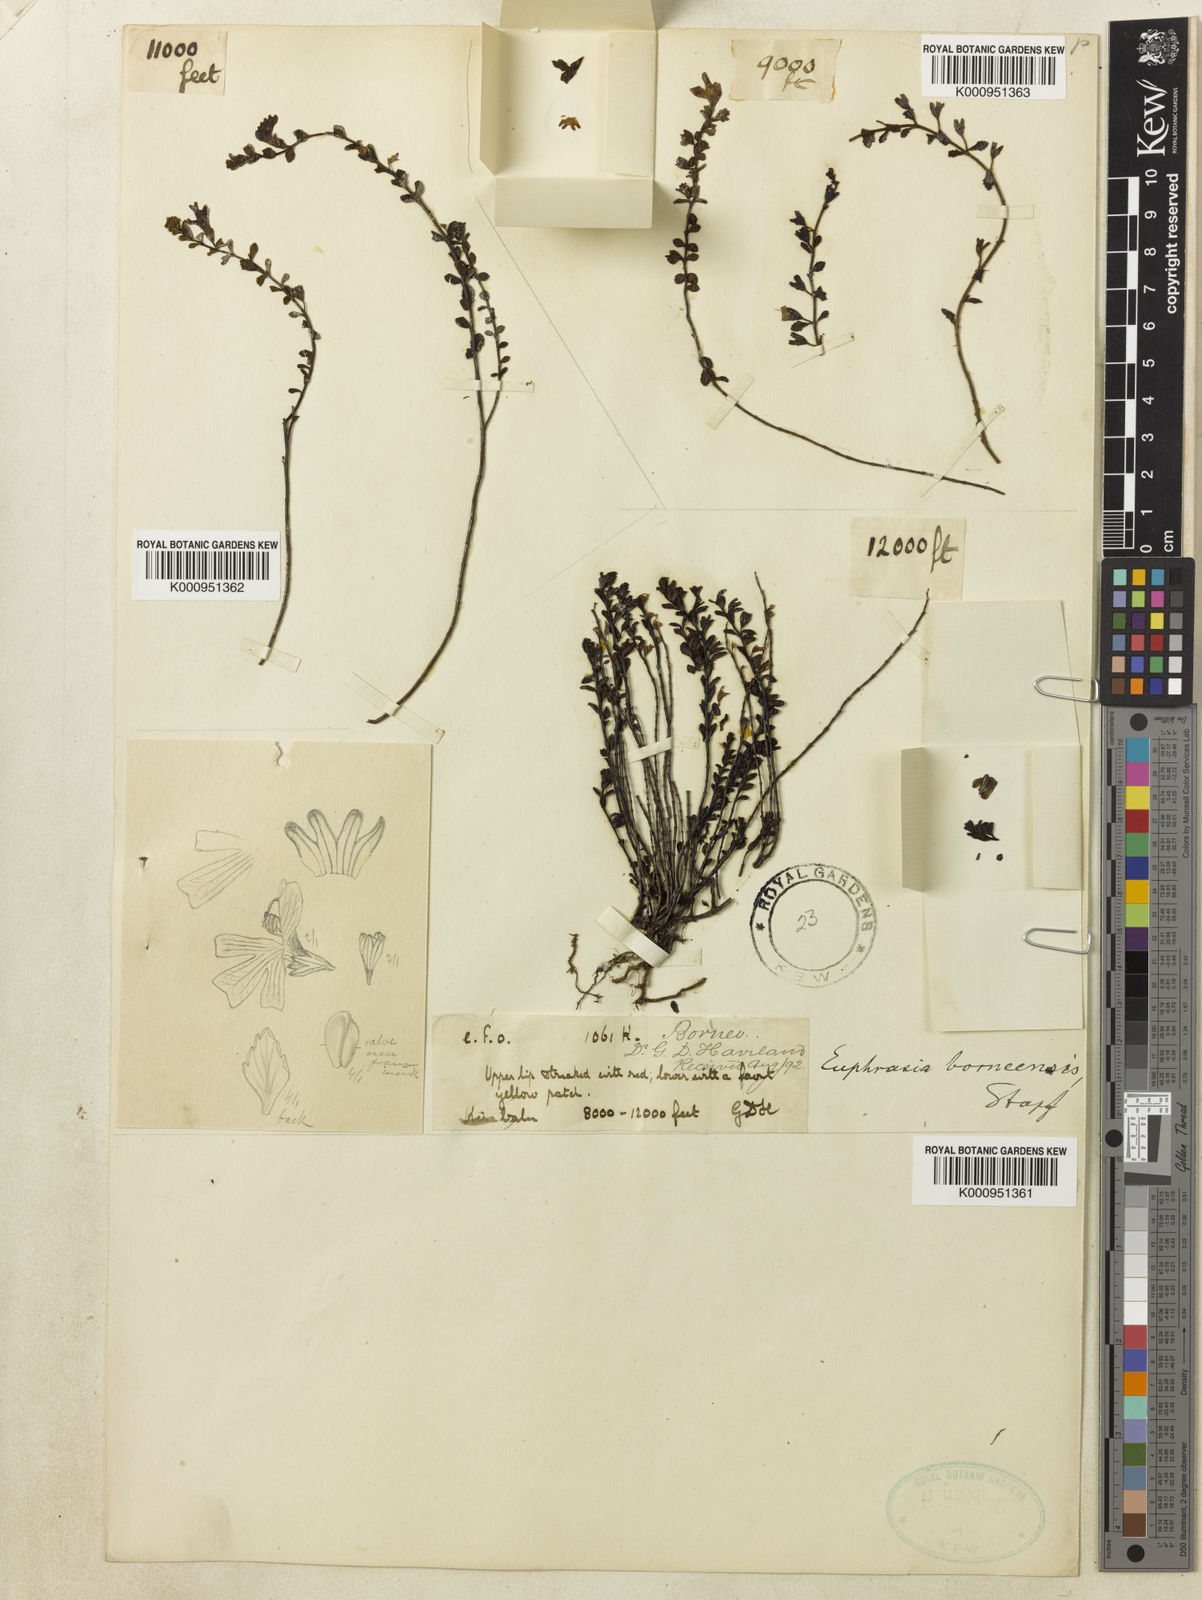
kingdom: Plantae
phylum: Tracheophyta
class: Magnoliopsida
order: Lamiales
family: Orobanchaceae
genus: Euphrasia
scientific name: Euphrasia borneensis
